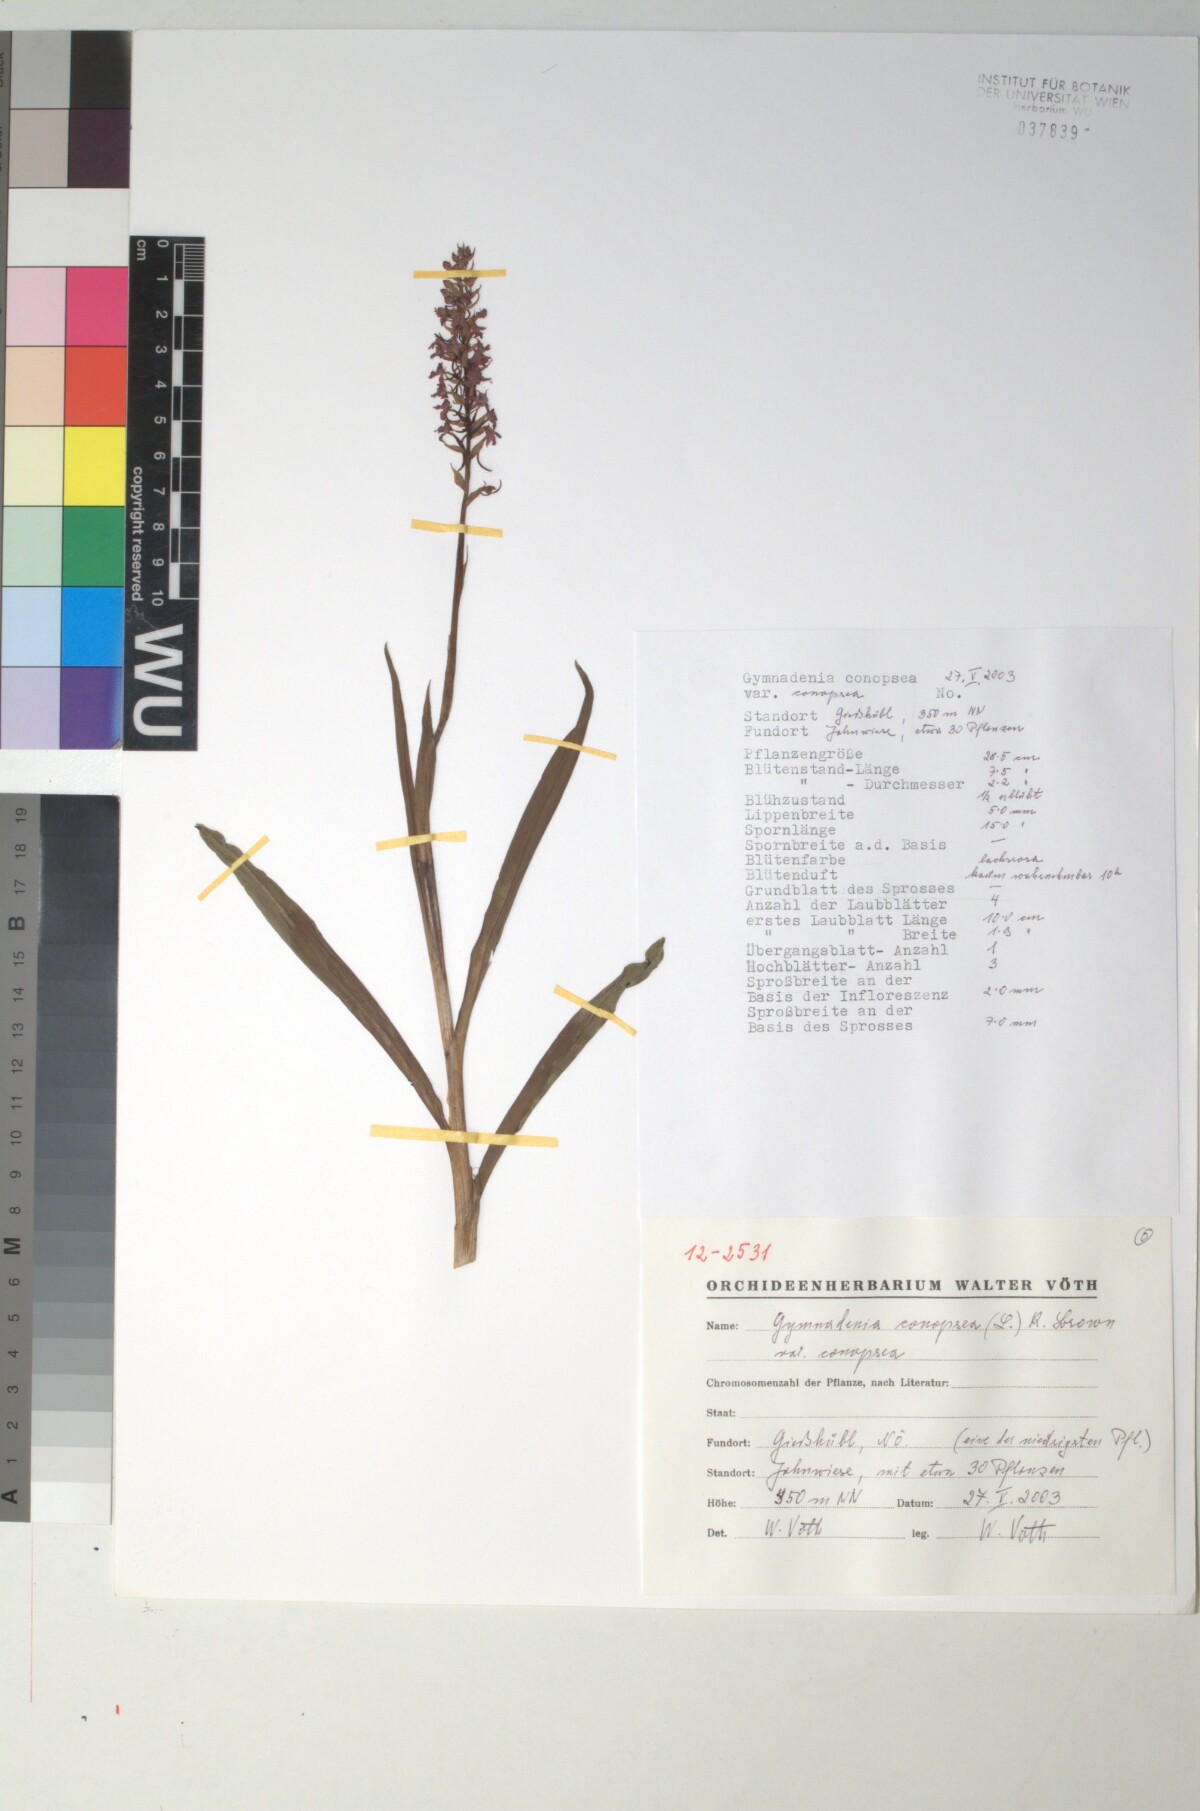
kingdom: Plantae
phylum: Tracheophyta
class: Liliopsida
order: Asparagales
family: Orchidaceae
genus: Gymnadenia
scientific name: Gymnadenia conopsea
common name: Fragrant orchid
